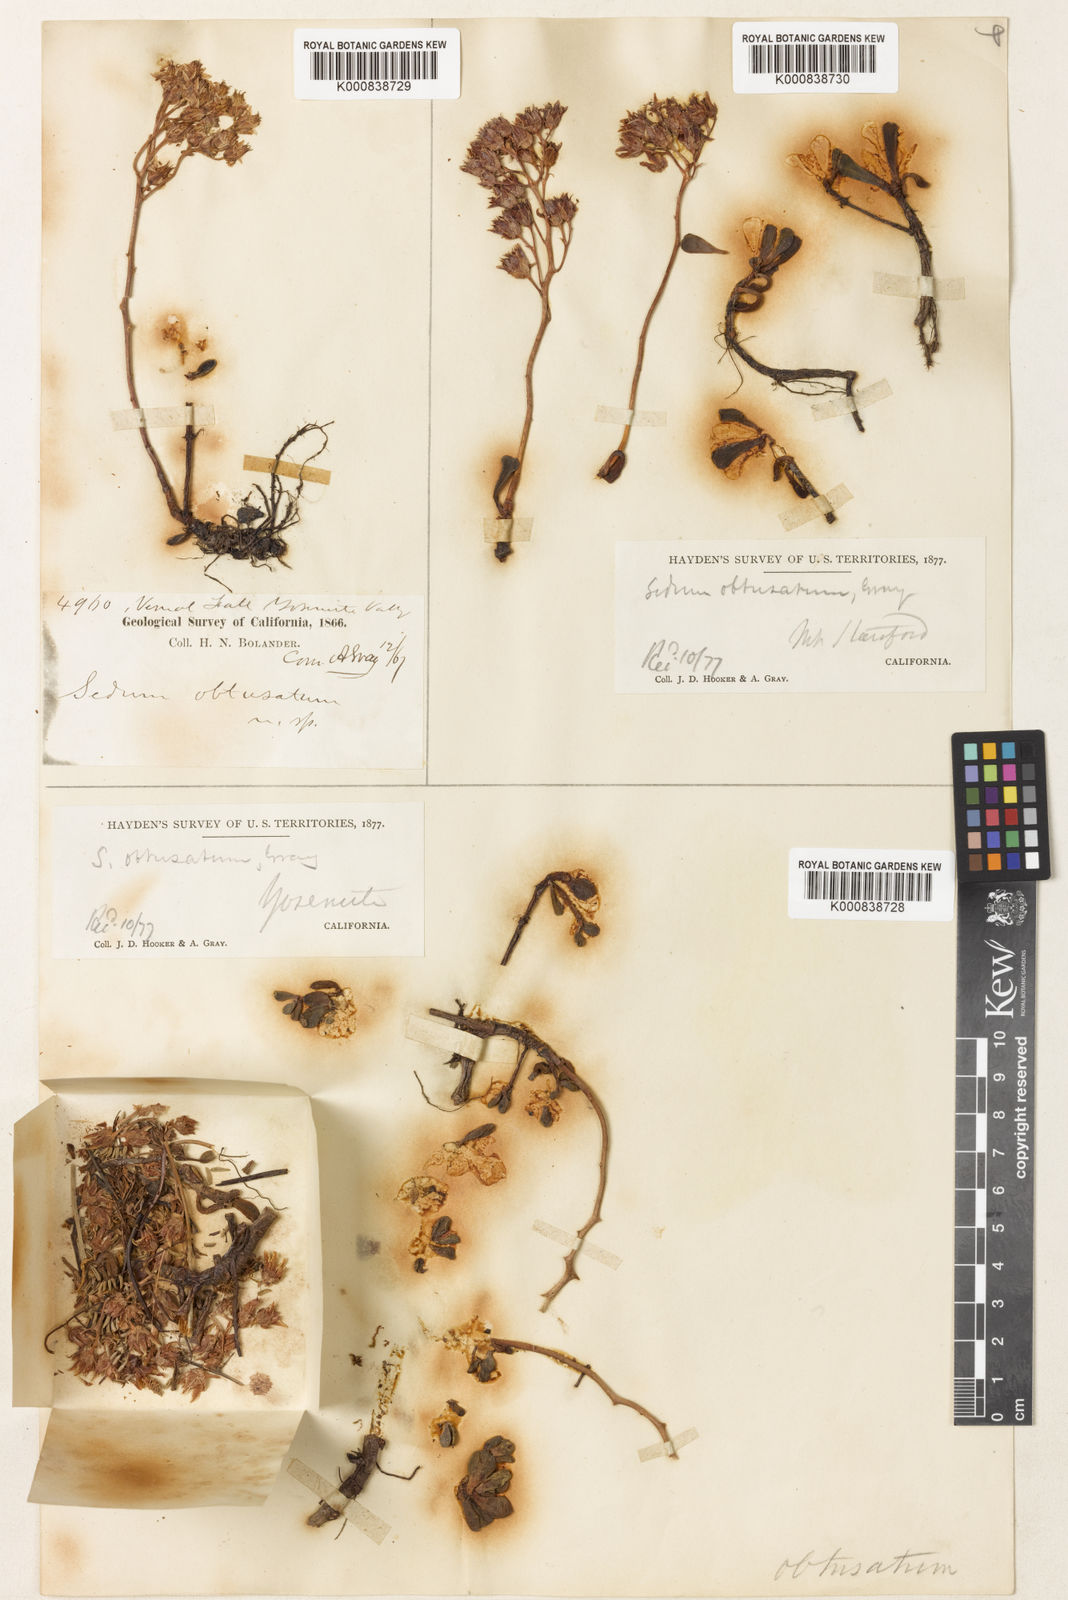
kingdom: Plantae
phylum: Tracheophyta
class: Magnoliopsida
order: Saxifragales
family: Crassulaceae
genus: Sedum
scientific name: Sedum obtusatum
